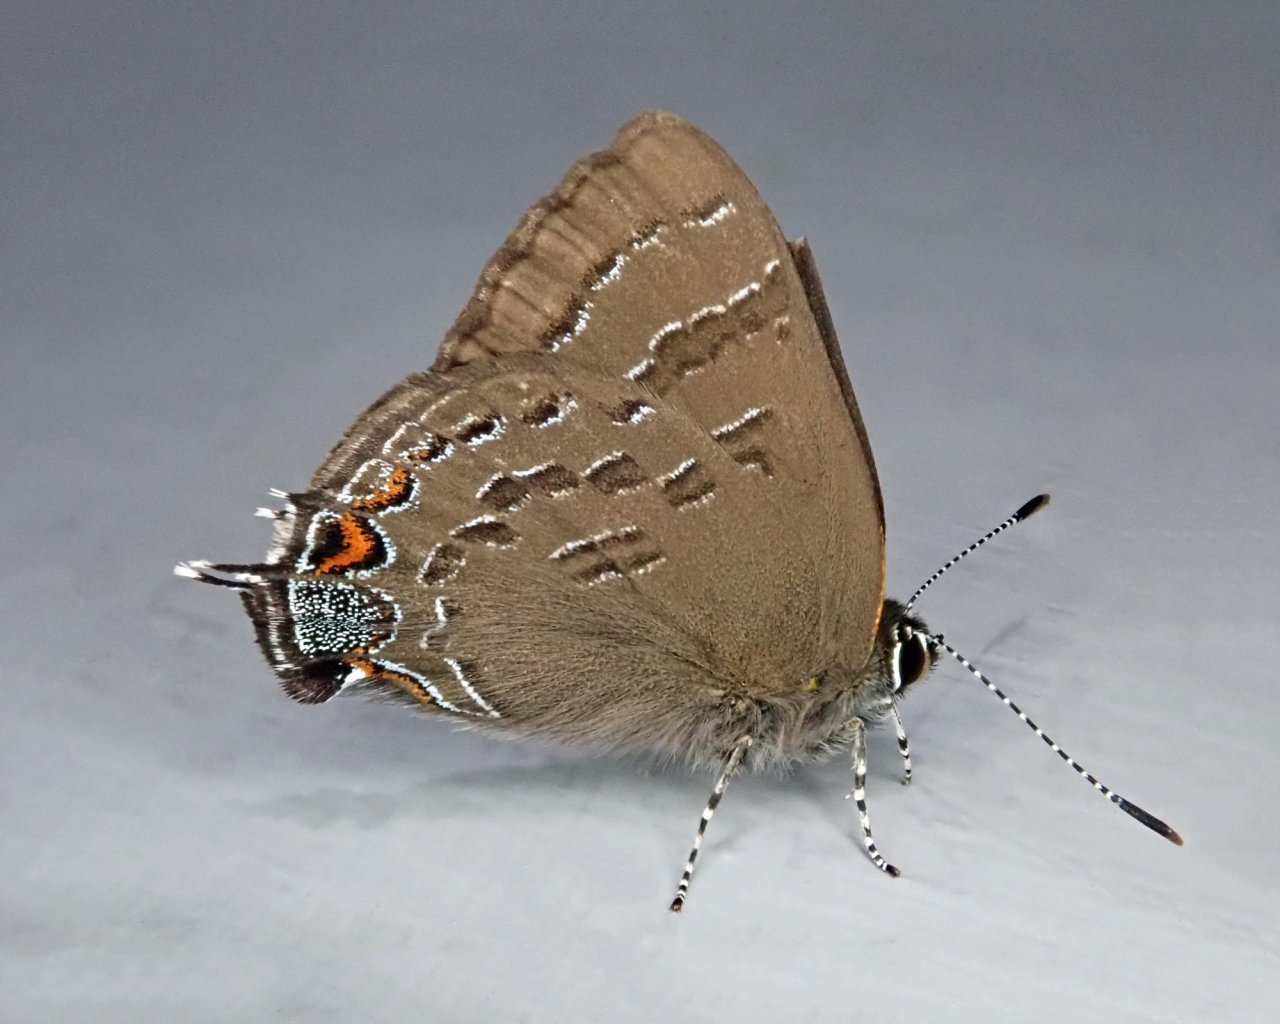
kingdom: Animalia
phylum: Arthropoda
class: Insecta
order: Lepidoptera
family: Lycaenidae
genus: Satyrium
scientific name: Satyrium calanus
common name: Banded Hairstreak
